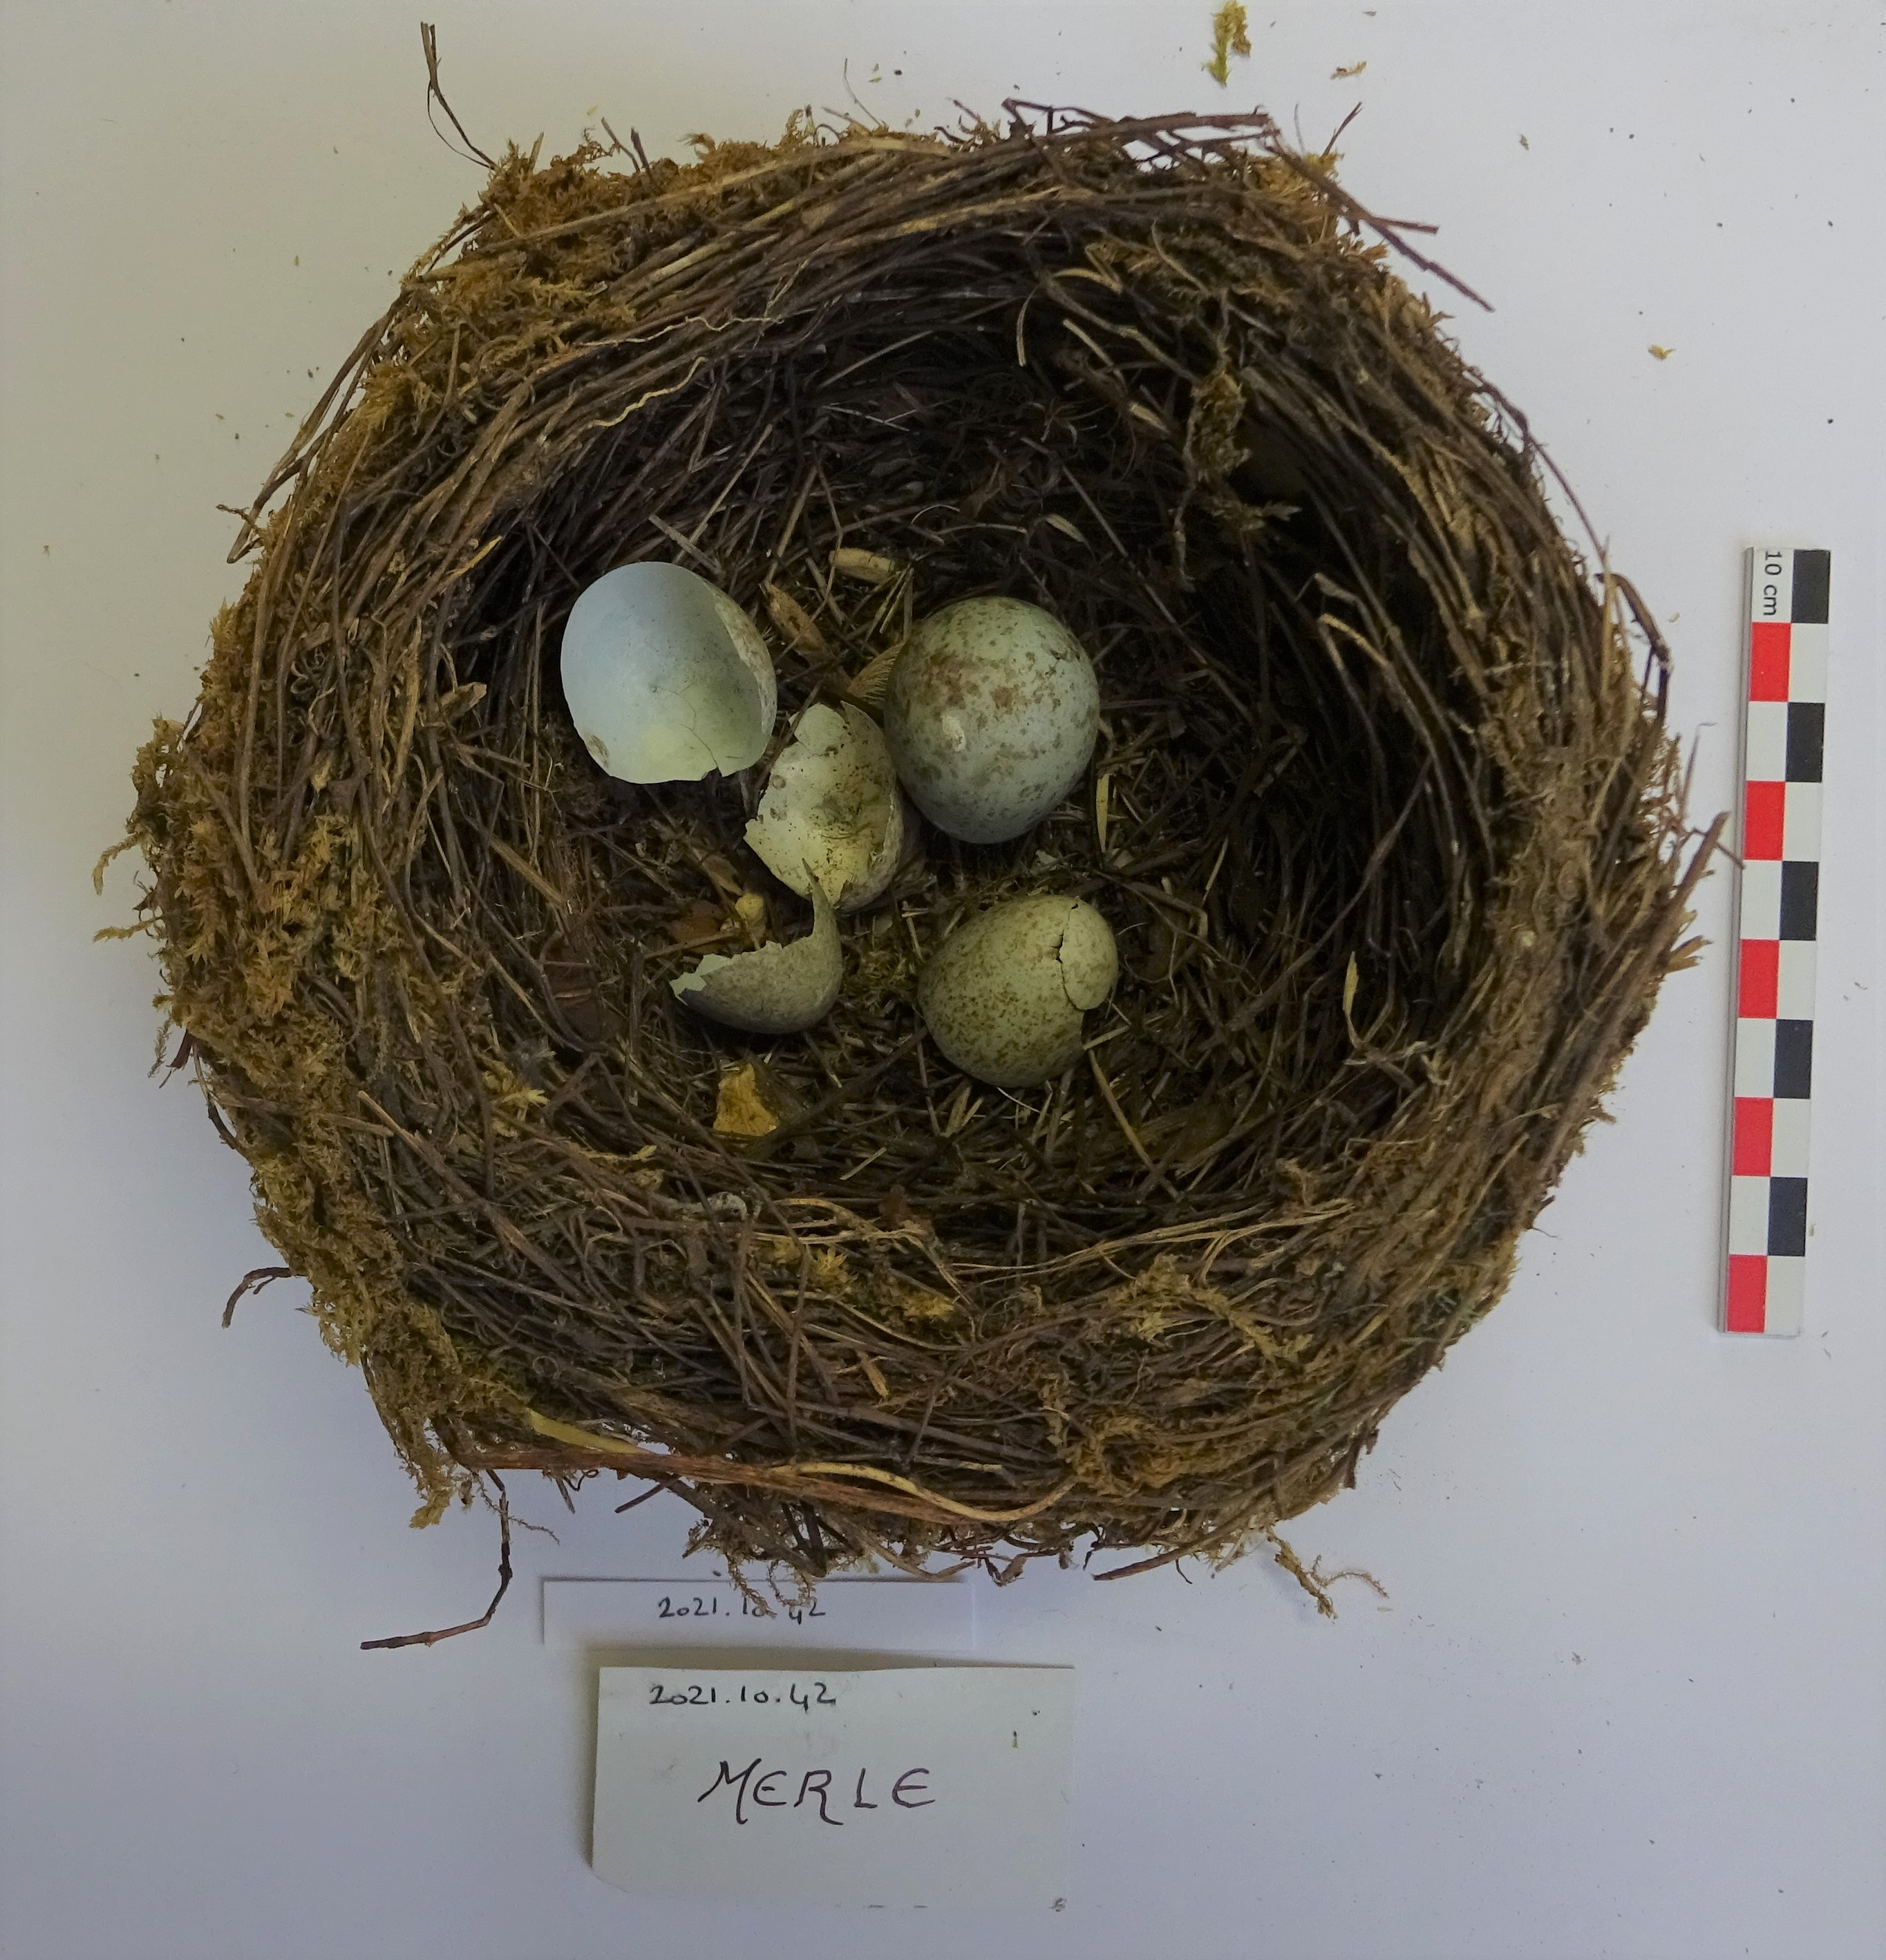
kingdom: Animalia
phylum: Chordata
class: Aves
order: Passeriformes
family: Turdidae
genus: Turdus
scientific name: Turdus merula
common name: Common blackbird
